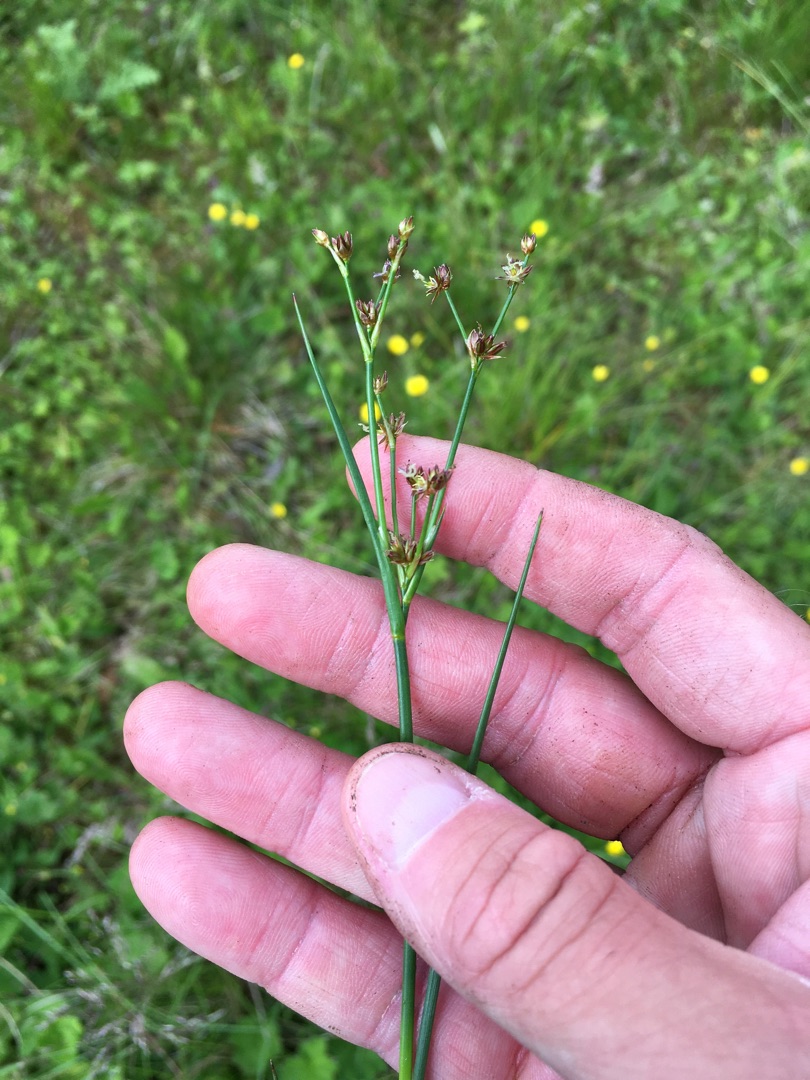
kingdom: Plantae
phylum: Tracheophyta
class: Liliopsida
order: Poales
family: Juncaceae
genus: Juncus
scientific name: Juncus articulatus
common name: Glanskapslet siv
